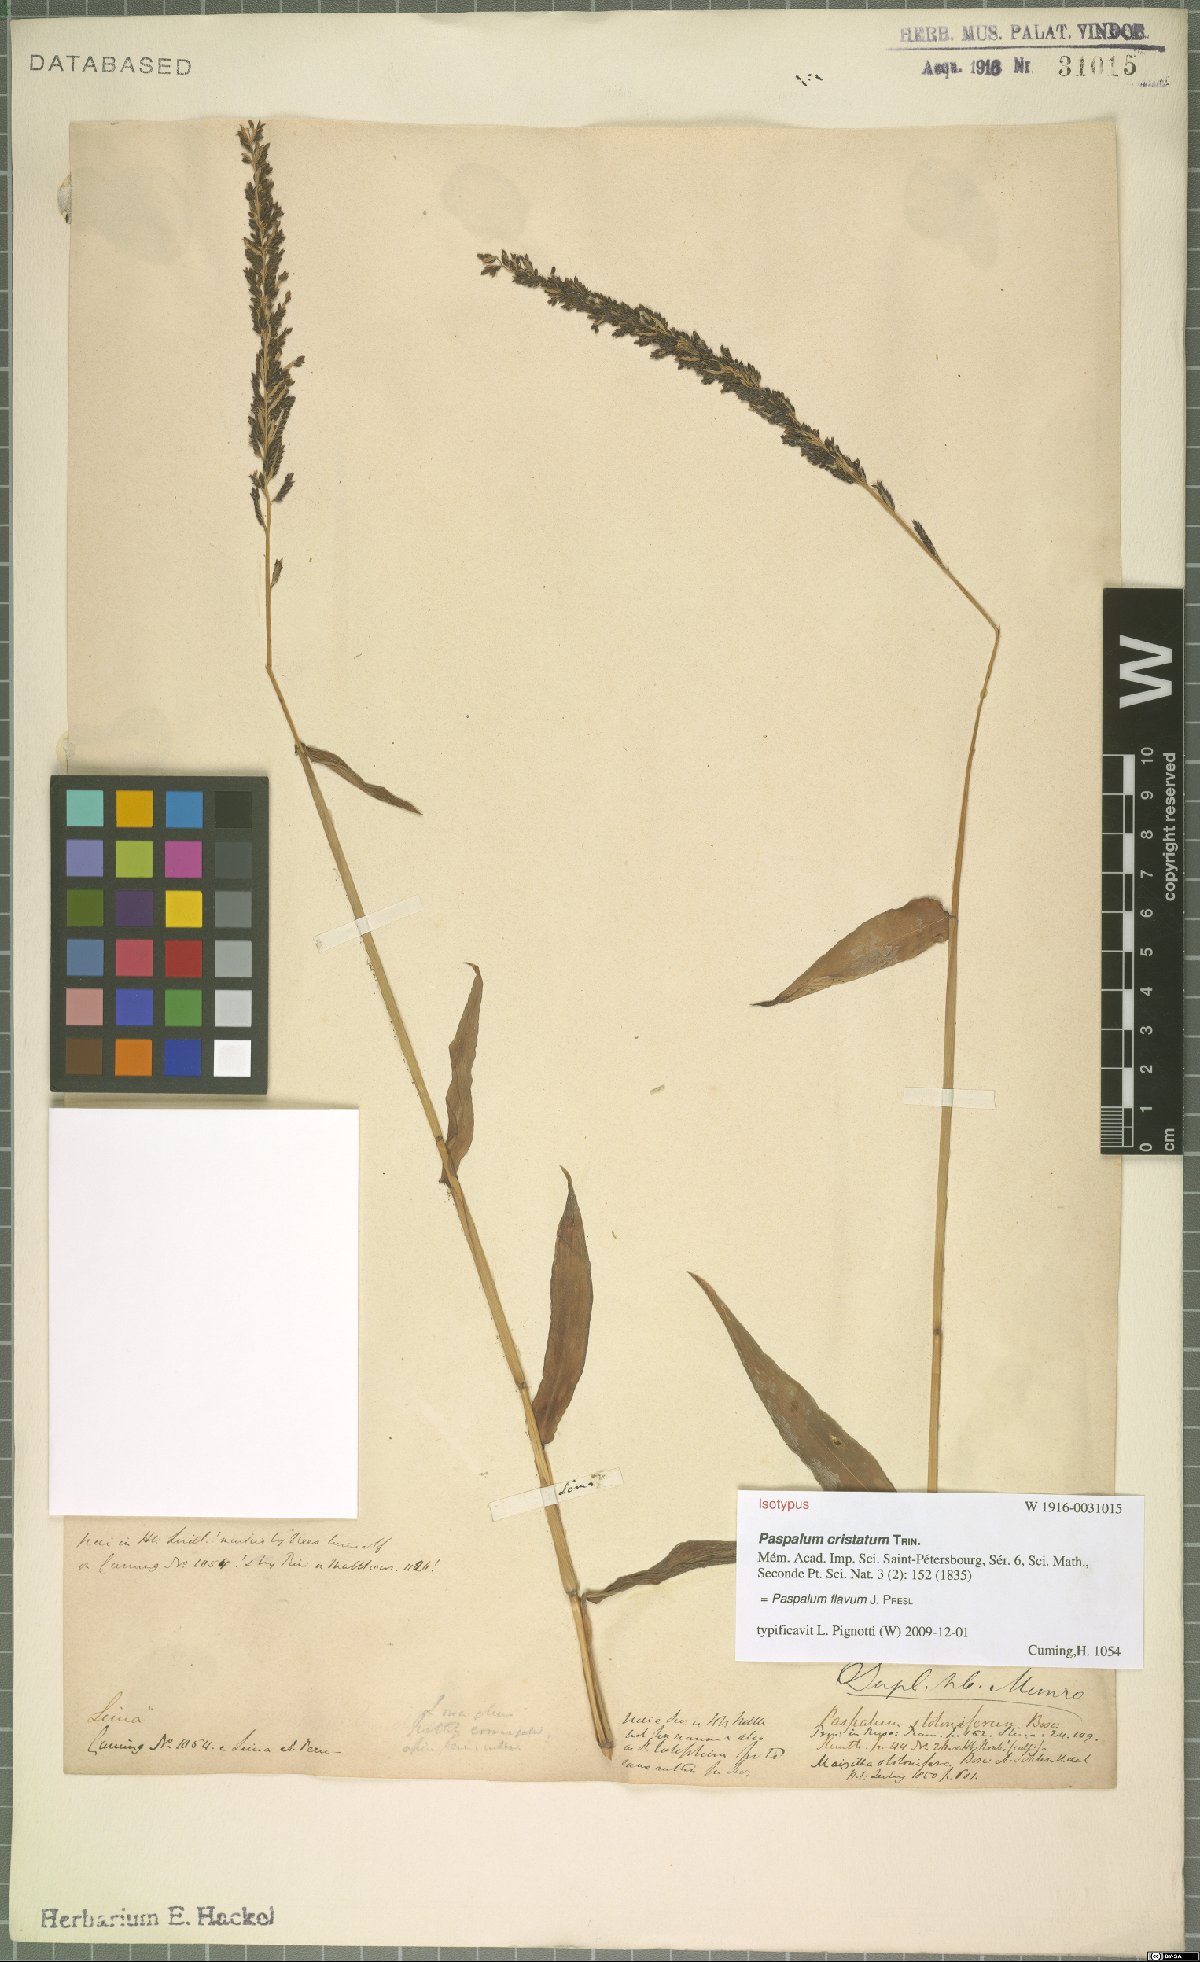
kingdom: Plantae
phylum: Tracheophyta
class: Liliopsida
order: Poales
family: Poaceae
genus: Paspalum
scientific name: Paspalum flavum
